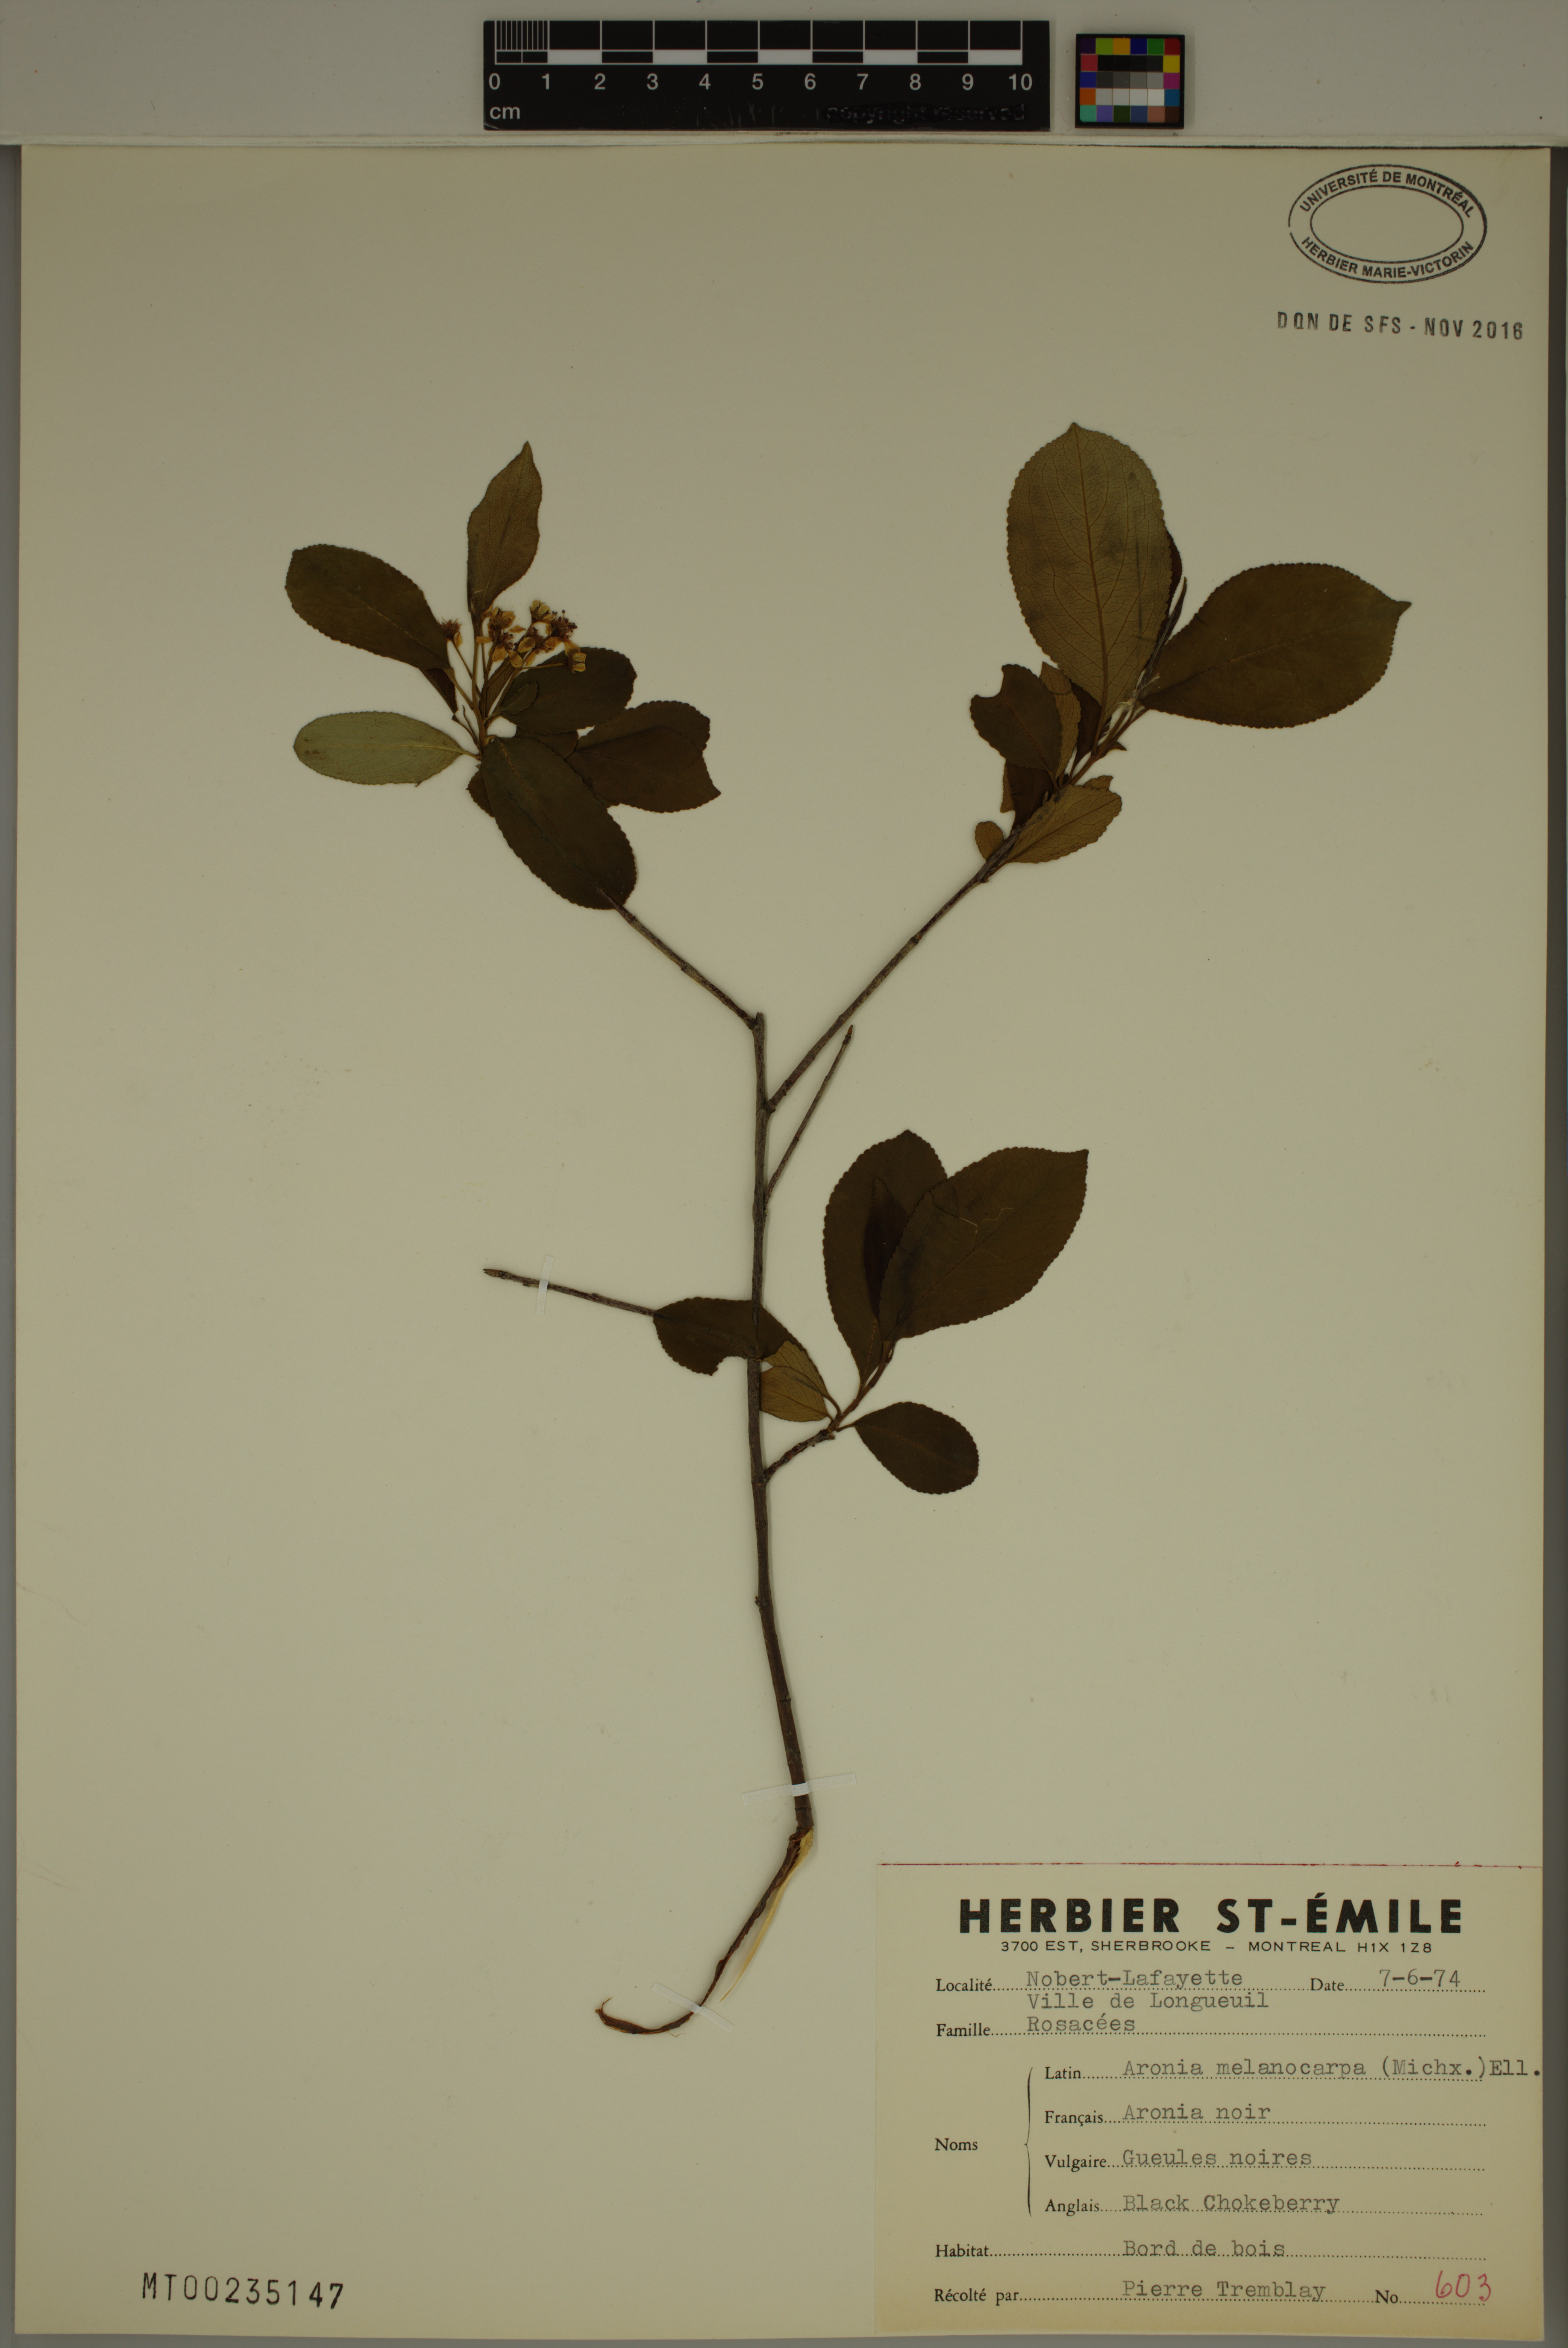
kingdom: Plantae
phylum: Tracheophyta
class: Magnoliopsida
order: Rosales
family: Rosaceae
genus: Aronia
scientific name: Aronia melanocarpa
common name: Black chokeberry
